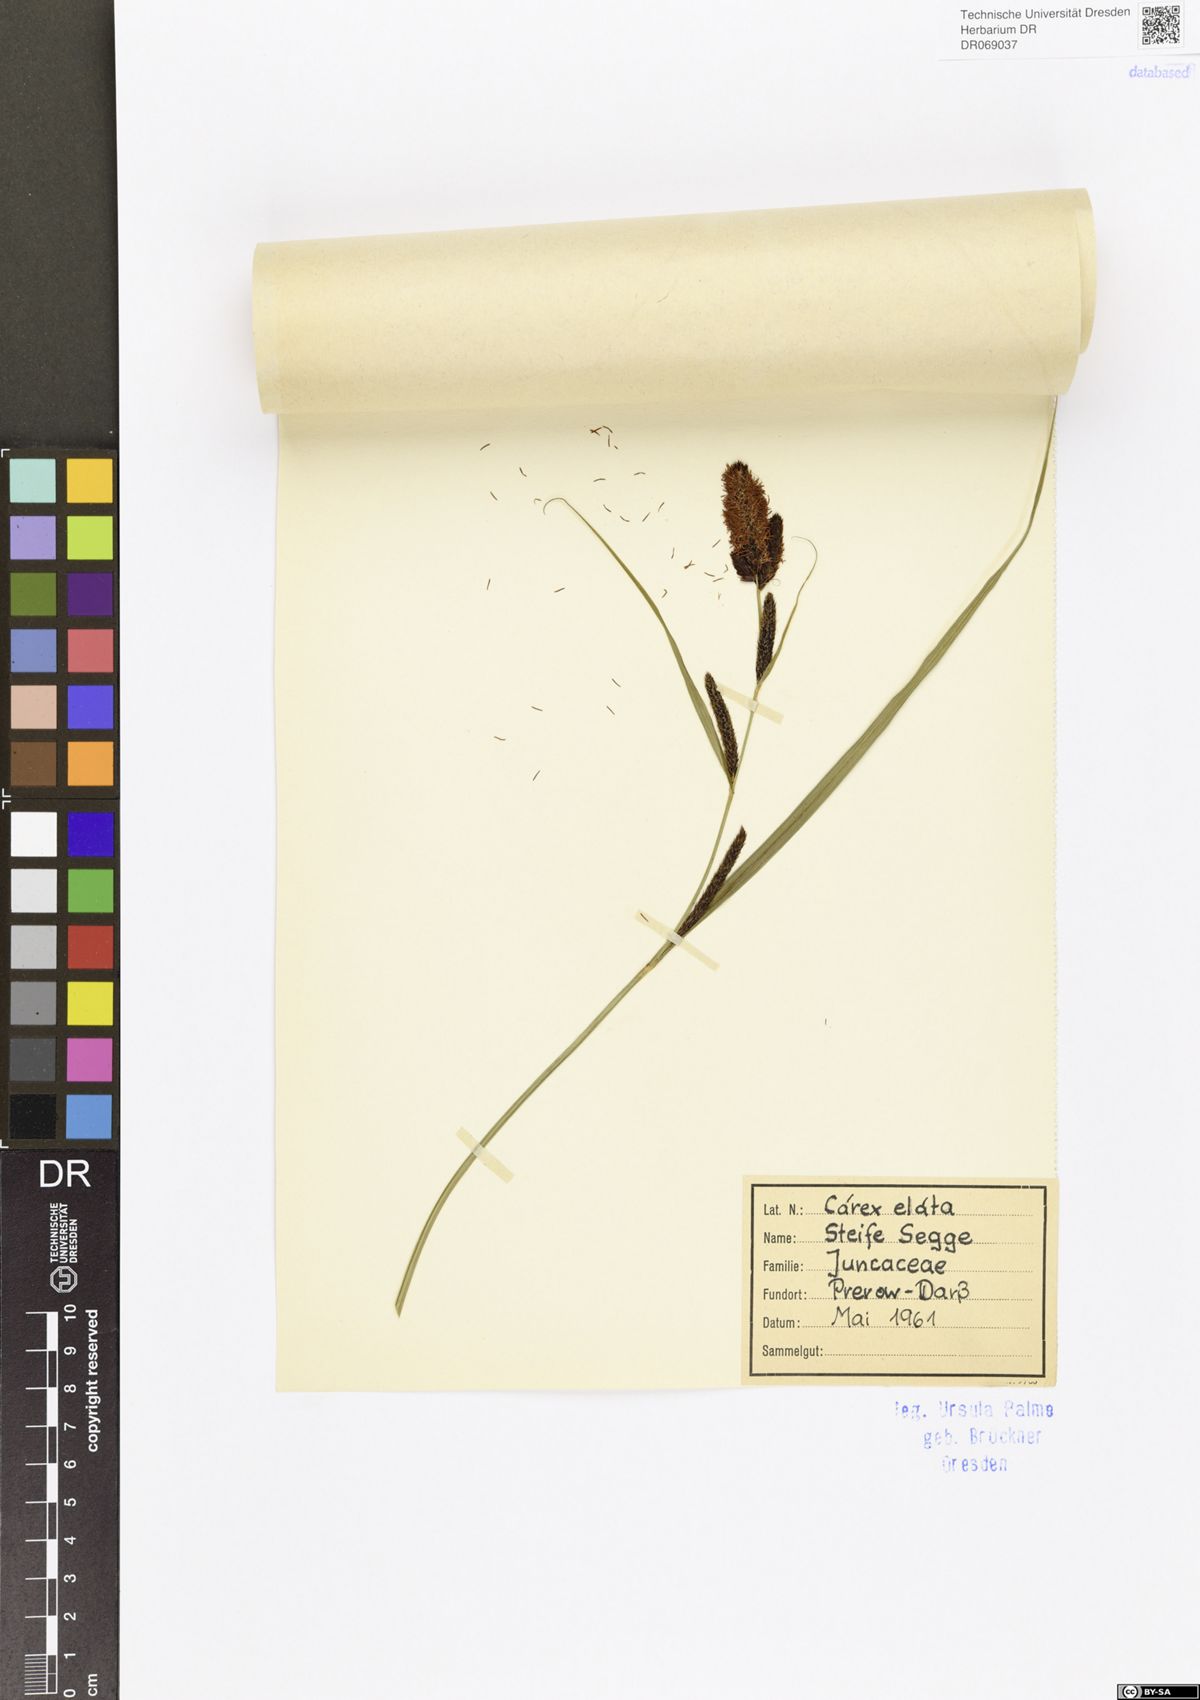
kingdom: Plantae
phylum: Tracheophyta
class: Liliopsida
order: Poales
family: Cyperaceae
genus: Carex
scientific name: Carex elata
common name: Tufted sedge
